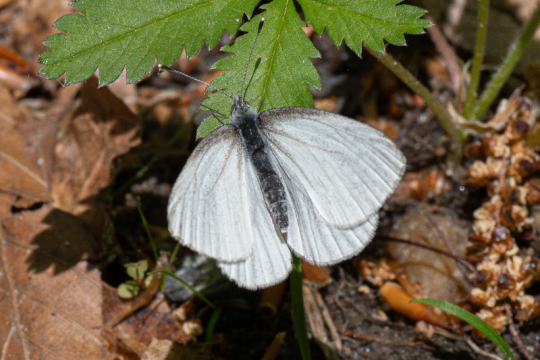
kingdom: Animalia
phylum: Arthropoda
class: Insecta
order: Lepidoptera
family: Pieridae
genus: Pieris
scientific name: Pieris virginiensis
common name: West Virginia White
